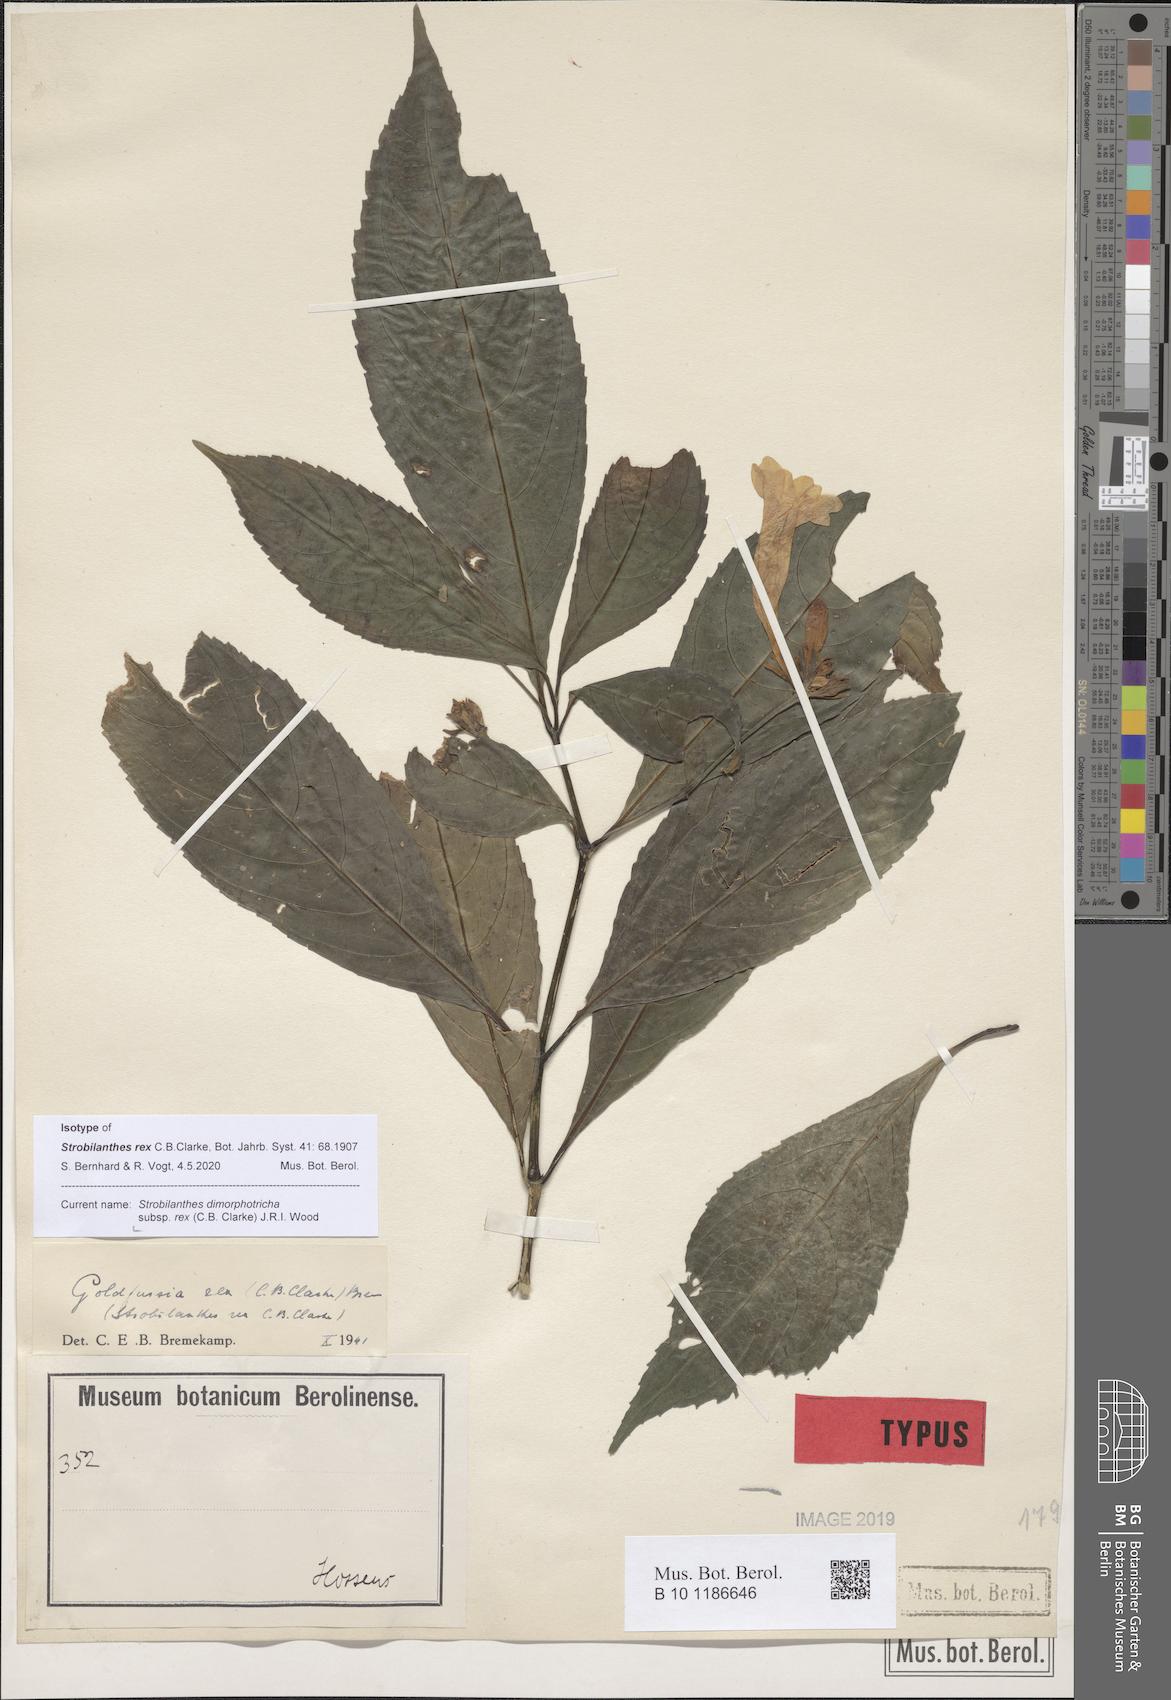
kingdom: Plantae
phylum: Tracheophyta
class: Magnoliopsida
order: Lamiales
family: Acanthaceae
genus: Strobilanthes
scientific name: Strobilanthes dimorphotricha
